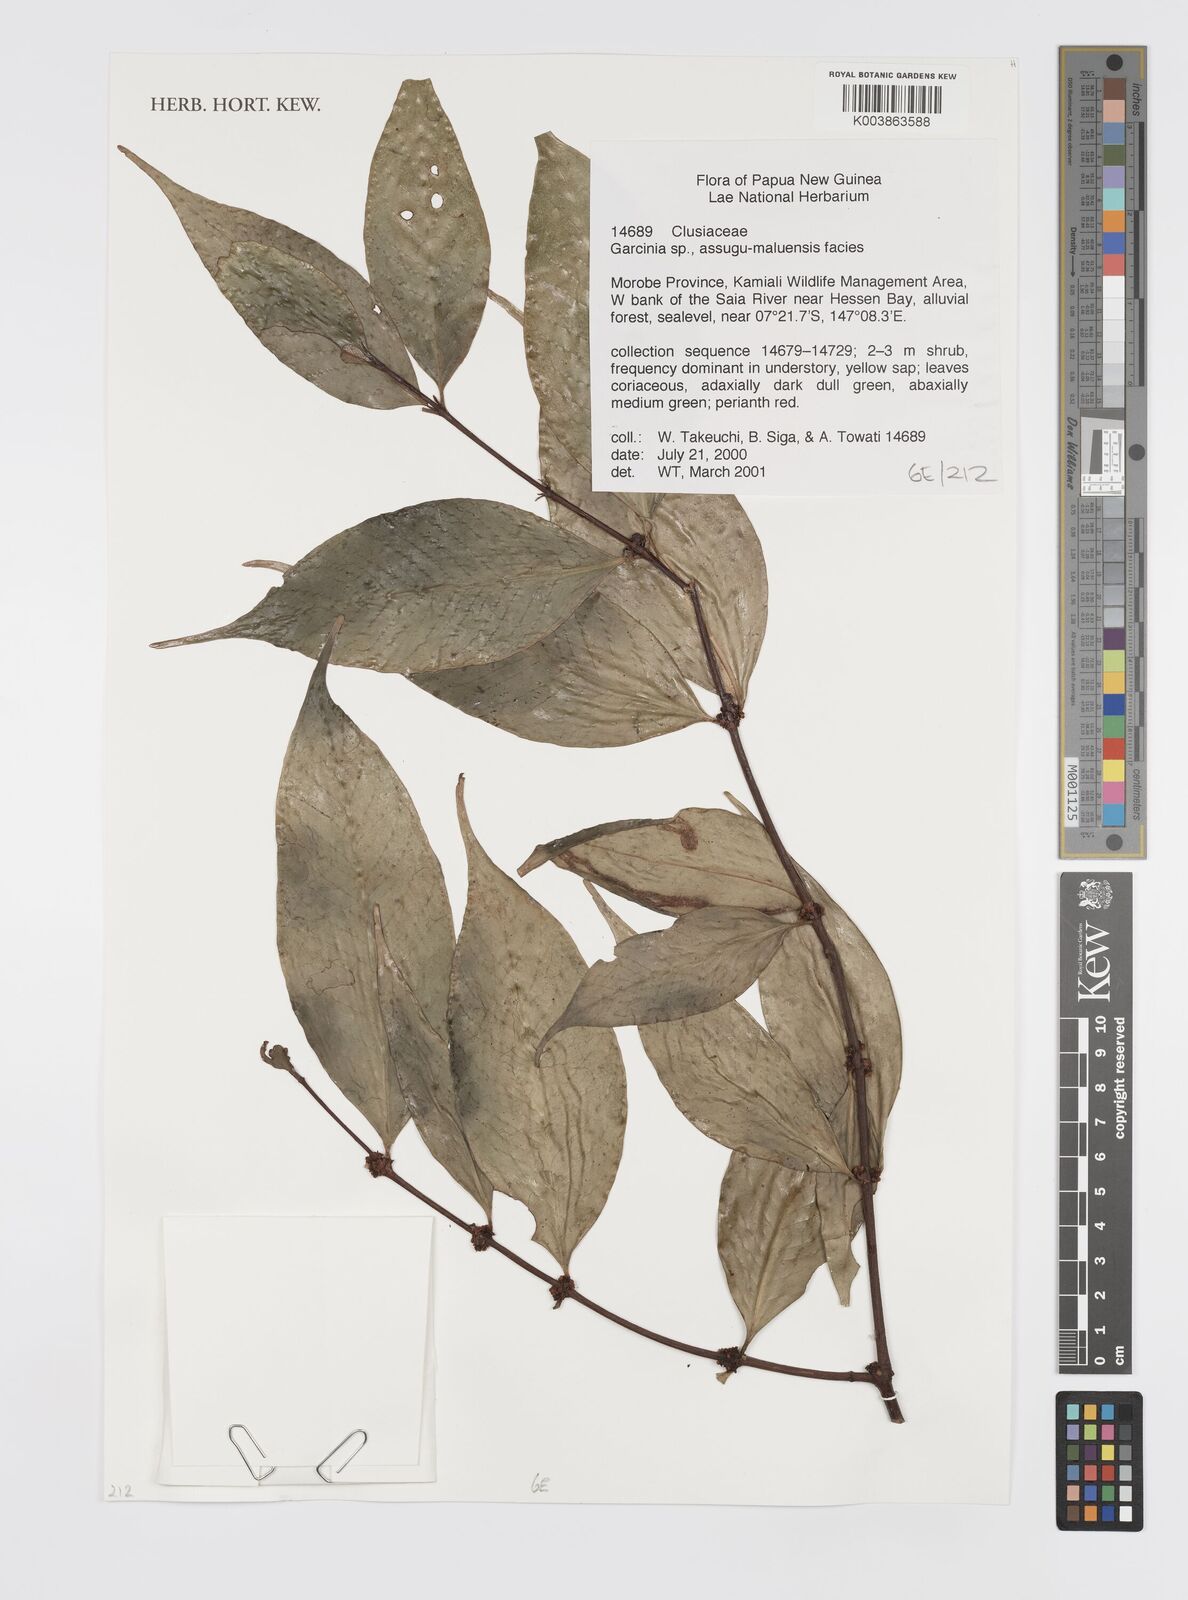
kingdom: Plantae
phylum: Tracheophyta
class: Magnoliopsida
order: Malpighiales
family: Clusiaceae
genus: Garcinia
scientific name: Garcinia
